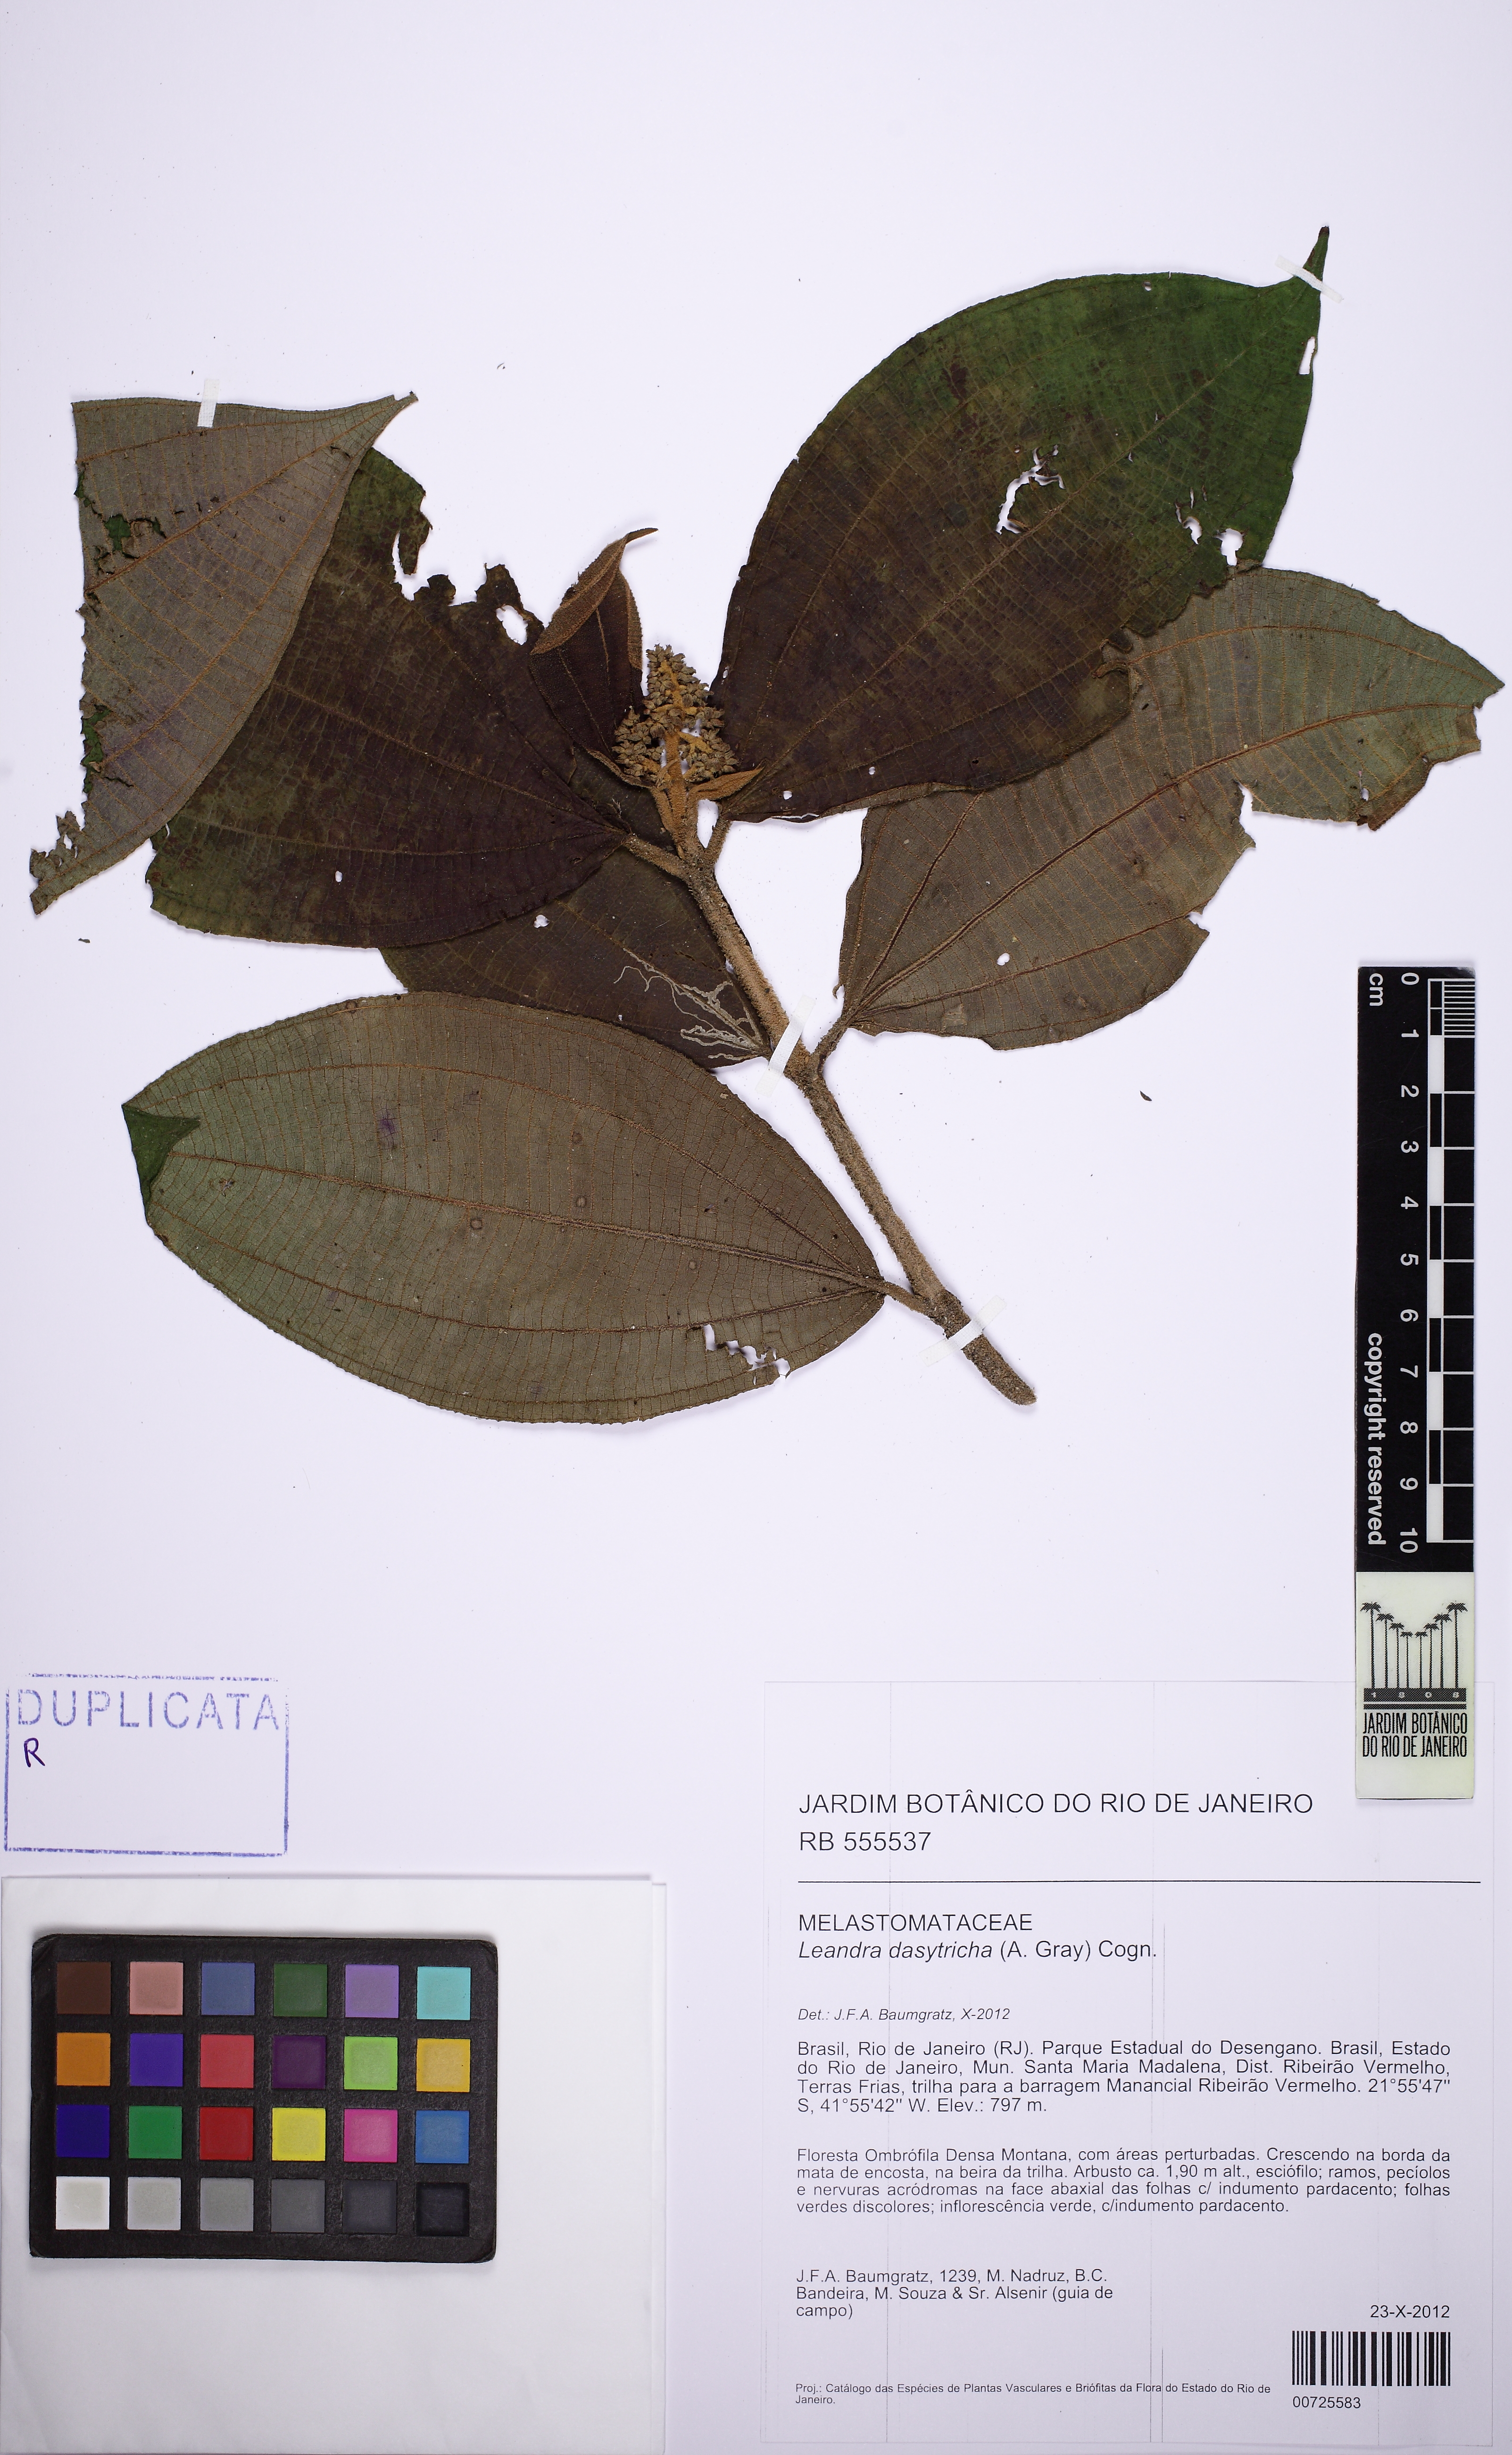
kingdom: Plantae
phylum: Tracheophyta
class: Magnoliopsida
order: Myrtales
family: Melastomataceae
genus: Miconia
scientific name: Miconia dasytricha
